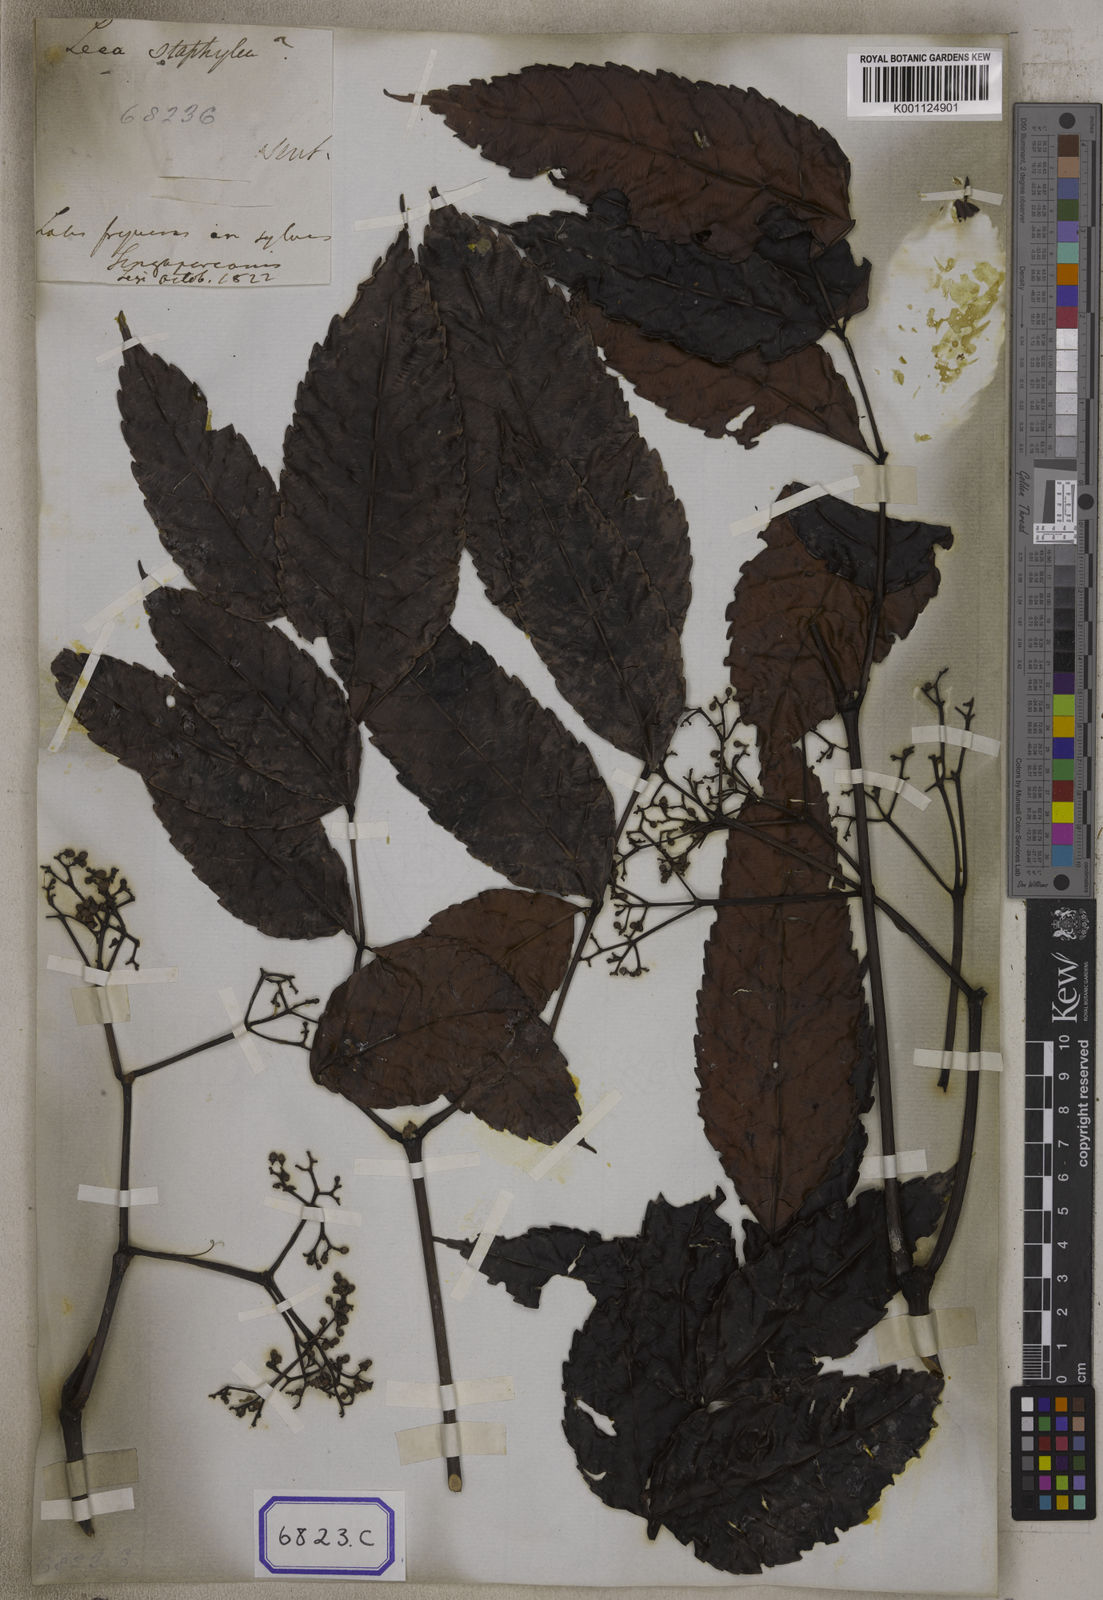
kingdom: Plantae
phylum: Tracheophyta
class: Magnoliopsida
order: Vitales
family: Vitaceae
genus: Leea
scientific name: Leea indica
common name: Bandicoot-berry
